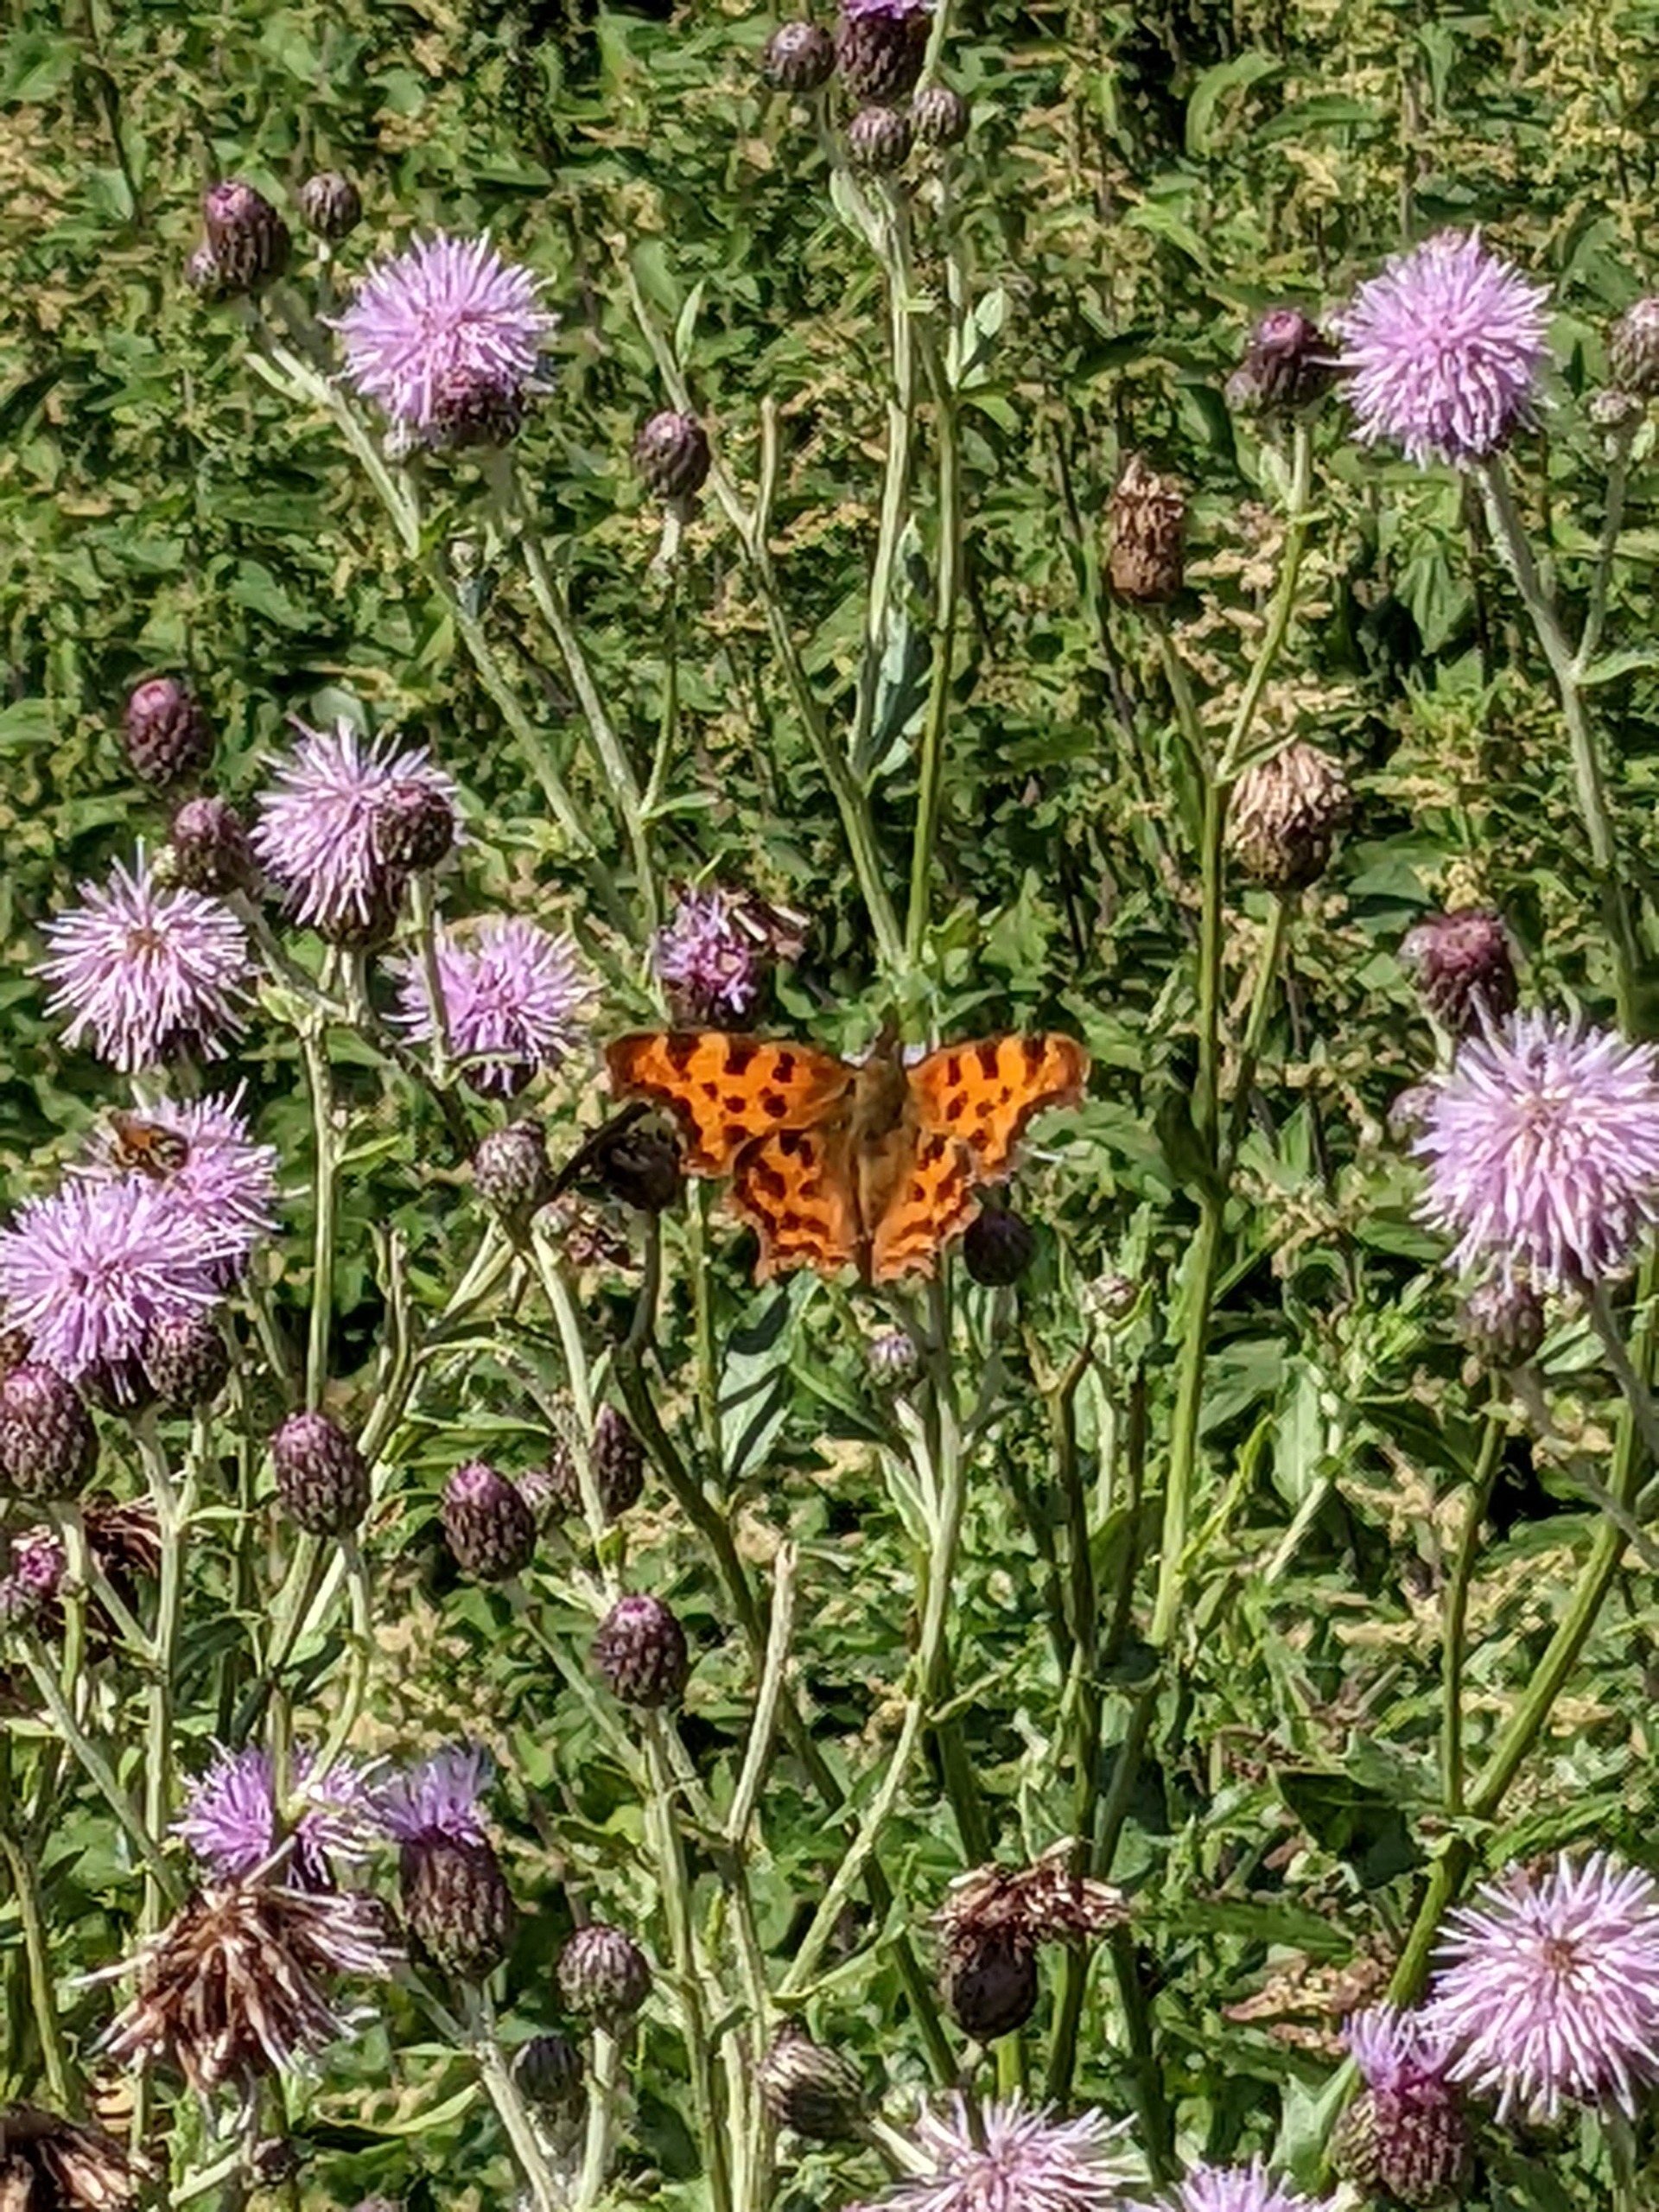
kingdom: Animalia
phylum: Arthropoda
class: Insecta
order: Lepidoptera
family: Nymphalidae
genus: Polygonia
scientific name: Polygonia c-album
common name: Det hvide C
